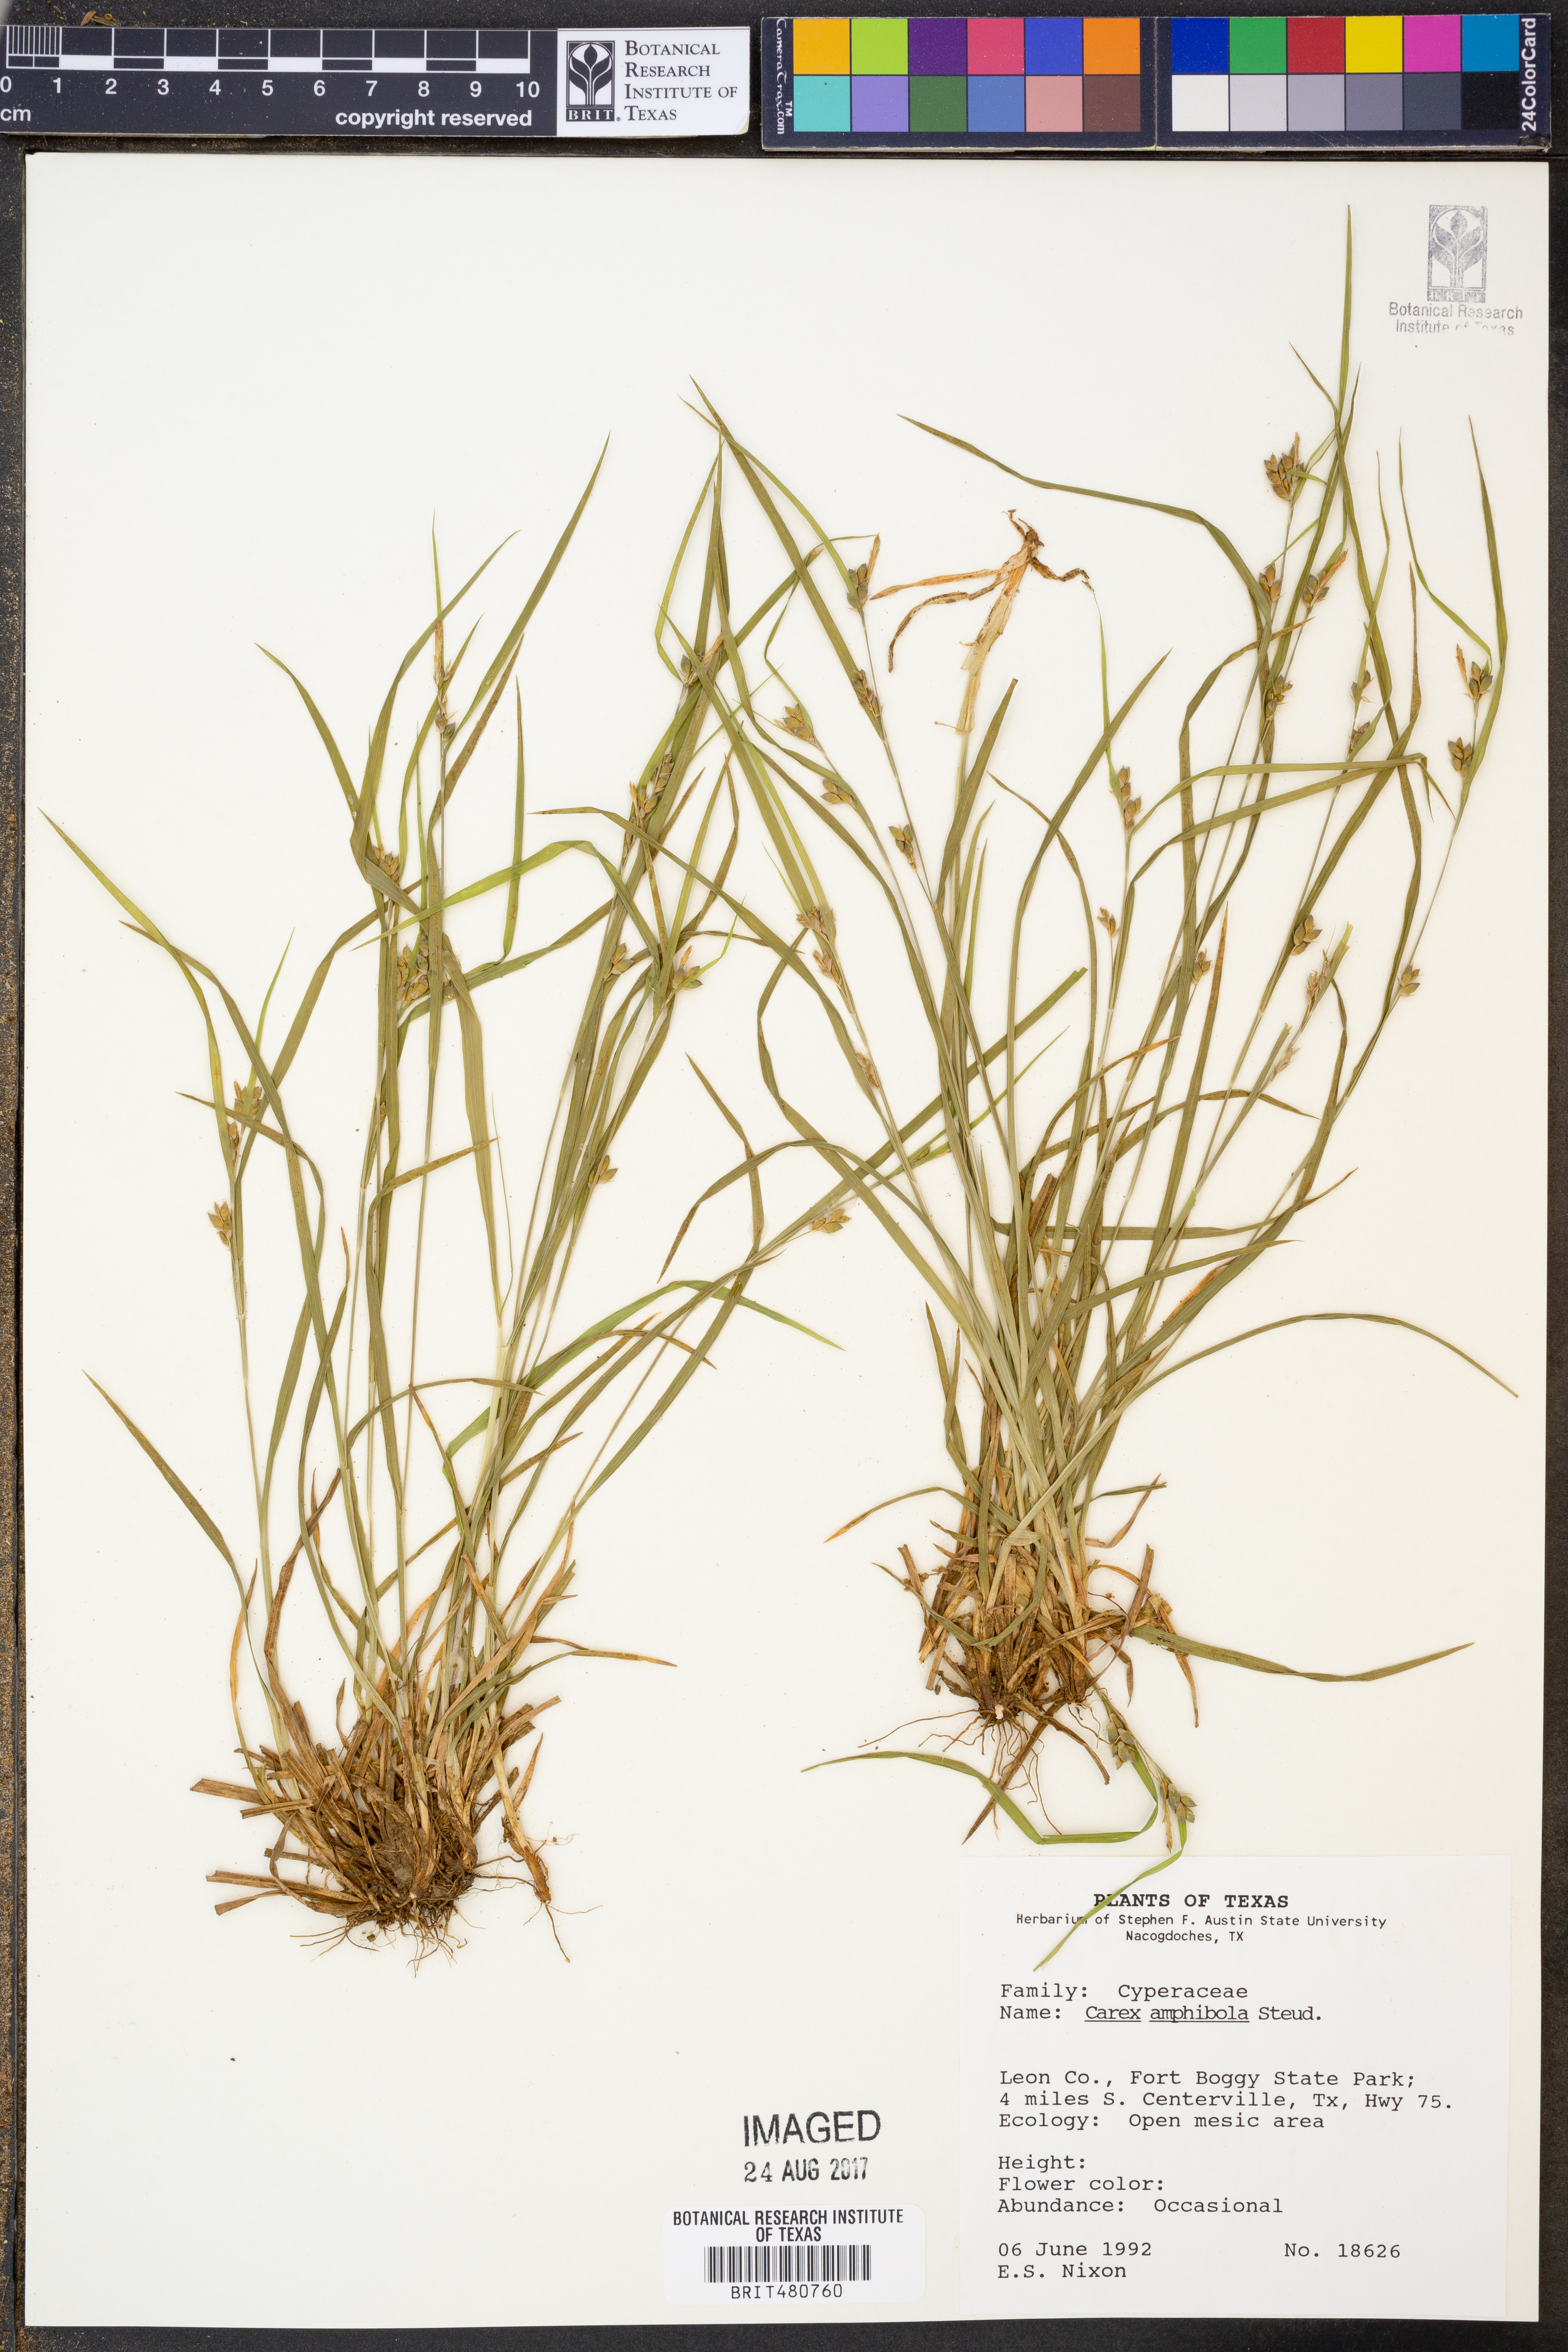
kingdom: Plantae
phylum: Tracheophyta
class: Liliopsida
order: Poales
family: Cyperaceae
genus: Carex
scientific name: Carex amphibola
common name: Amphibious sedge
